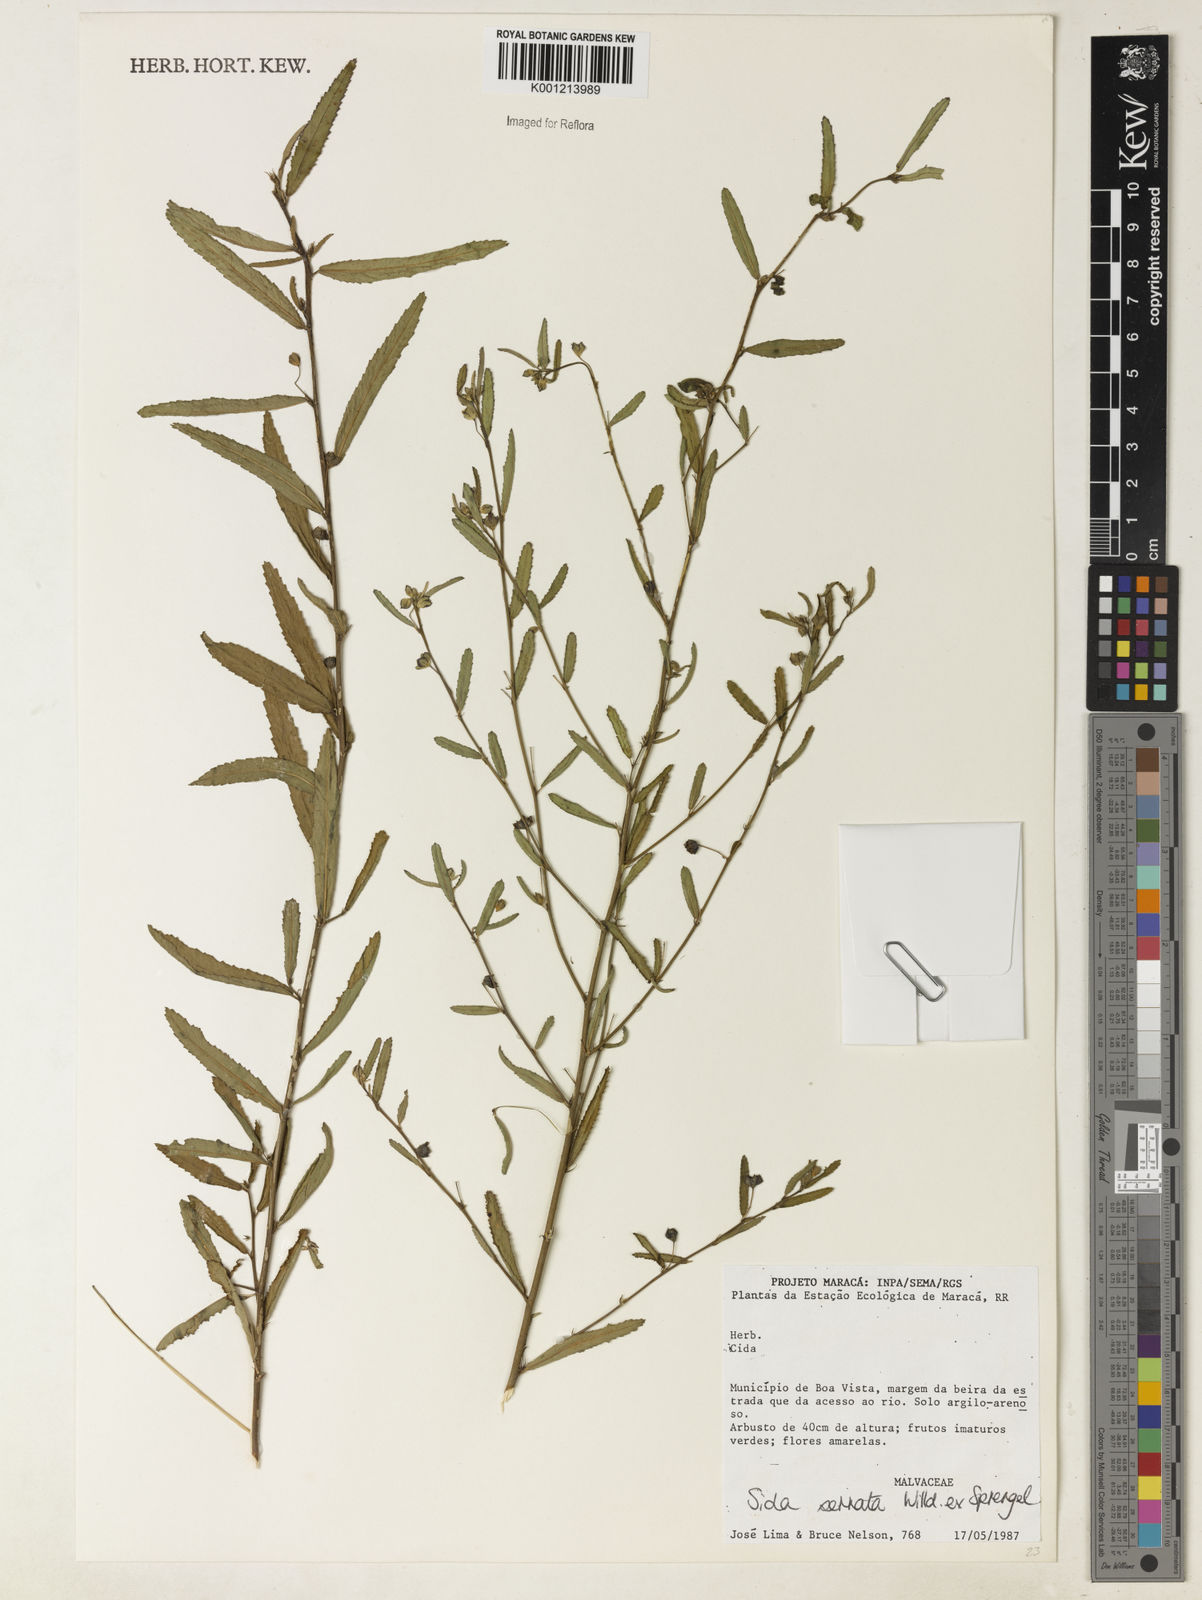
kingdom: Plantae
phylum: Tracheophyta
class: Magnoliopsida
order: Malvales
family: Malvaceae
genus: Sida
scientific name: Sida serrata
